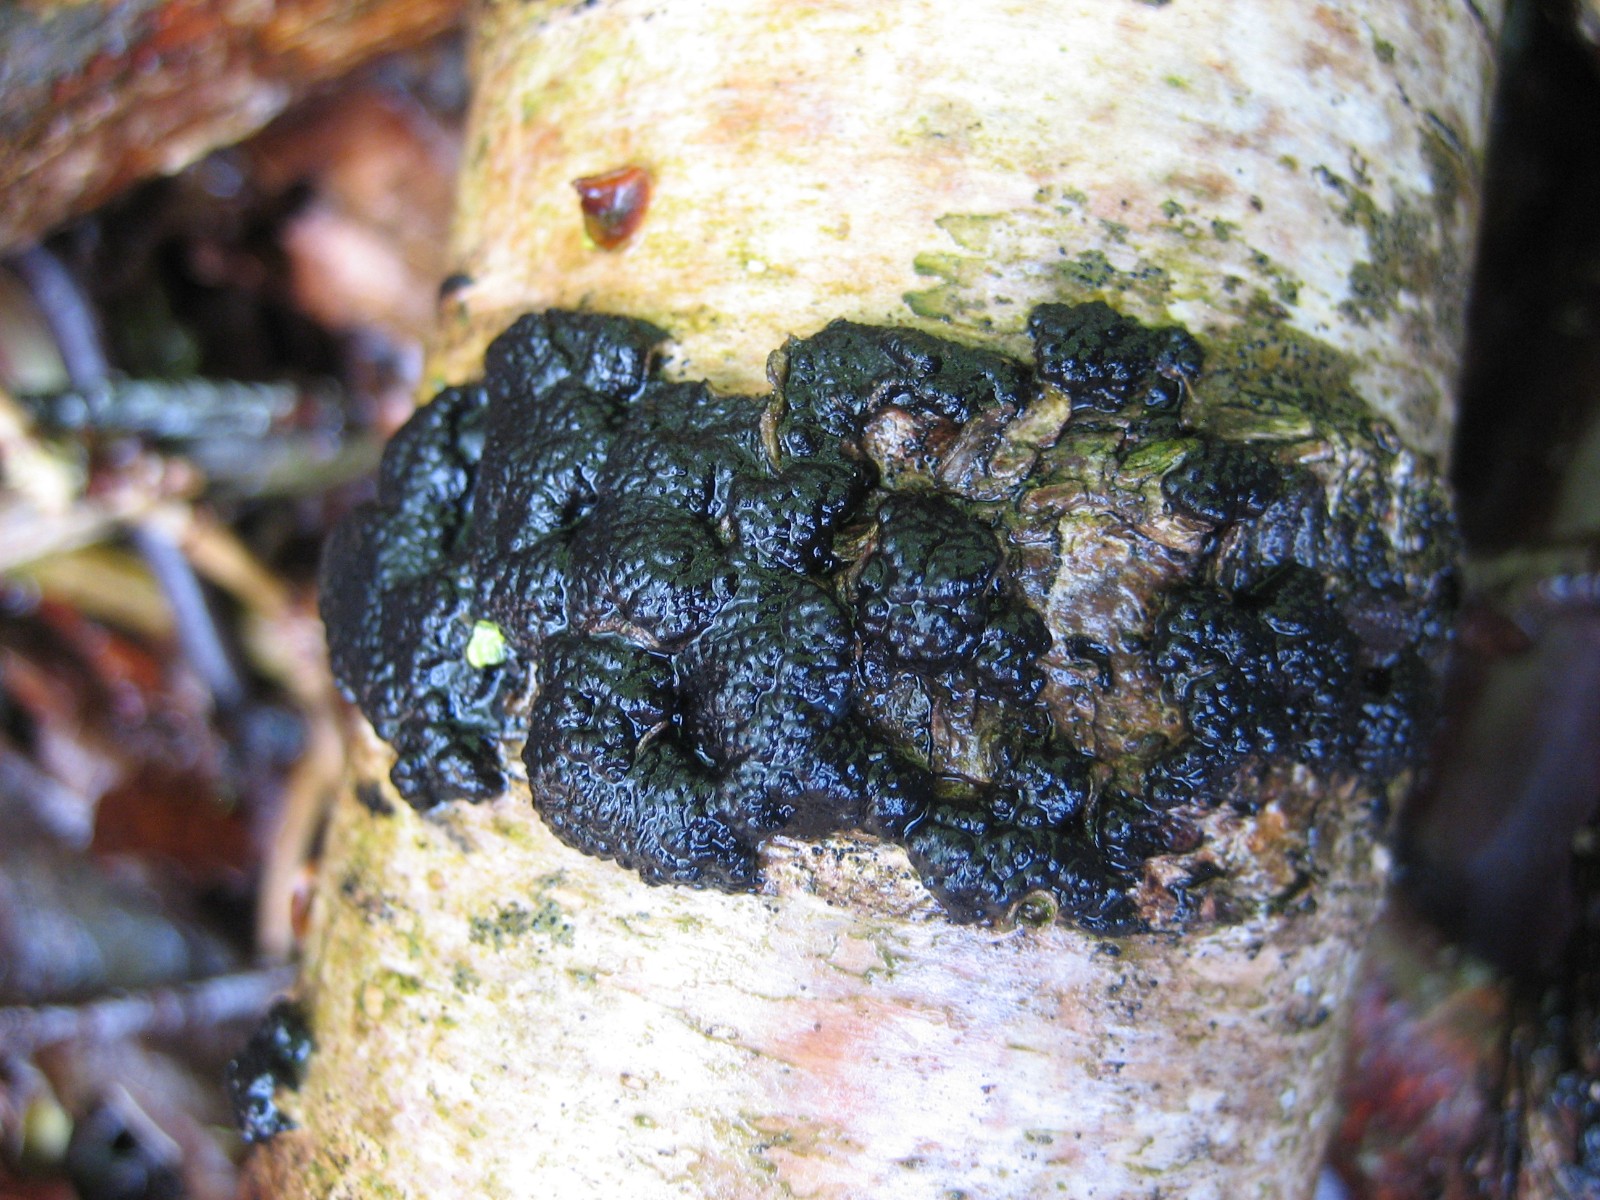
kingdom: Fungi
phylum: Ascomycota
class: Sordariomycetes
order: Xylariales
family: Hypoxylaceae
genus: Jackrogersella
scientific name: Jackrogersella multiformis
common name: foranderlig kulbær
